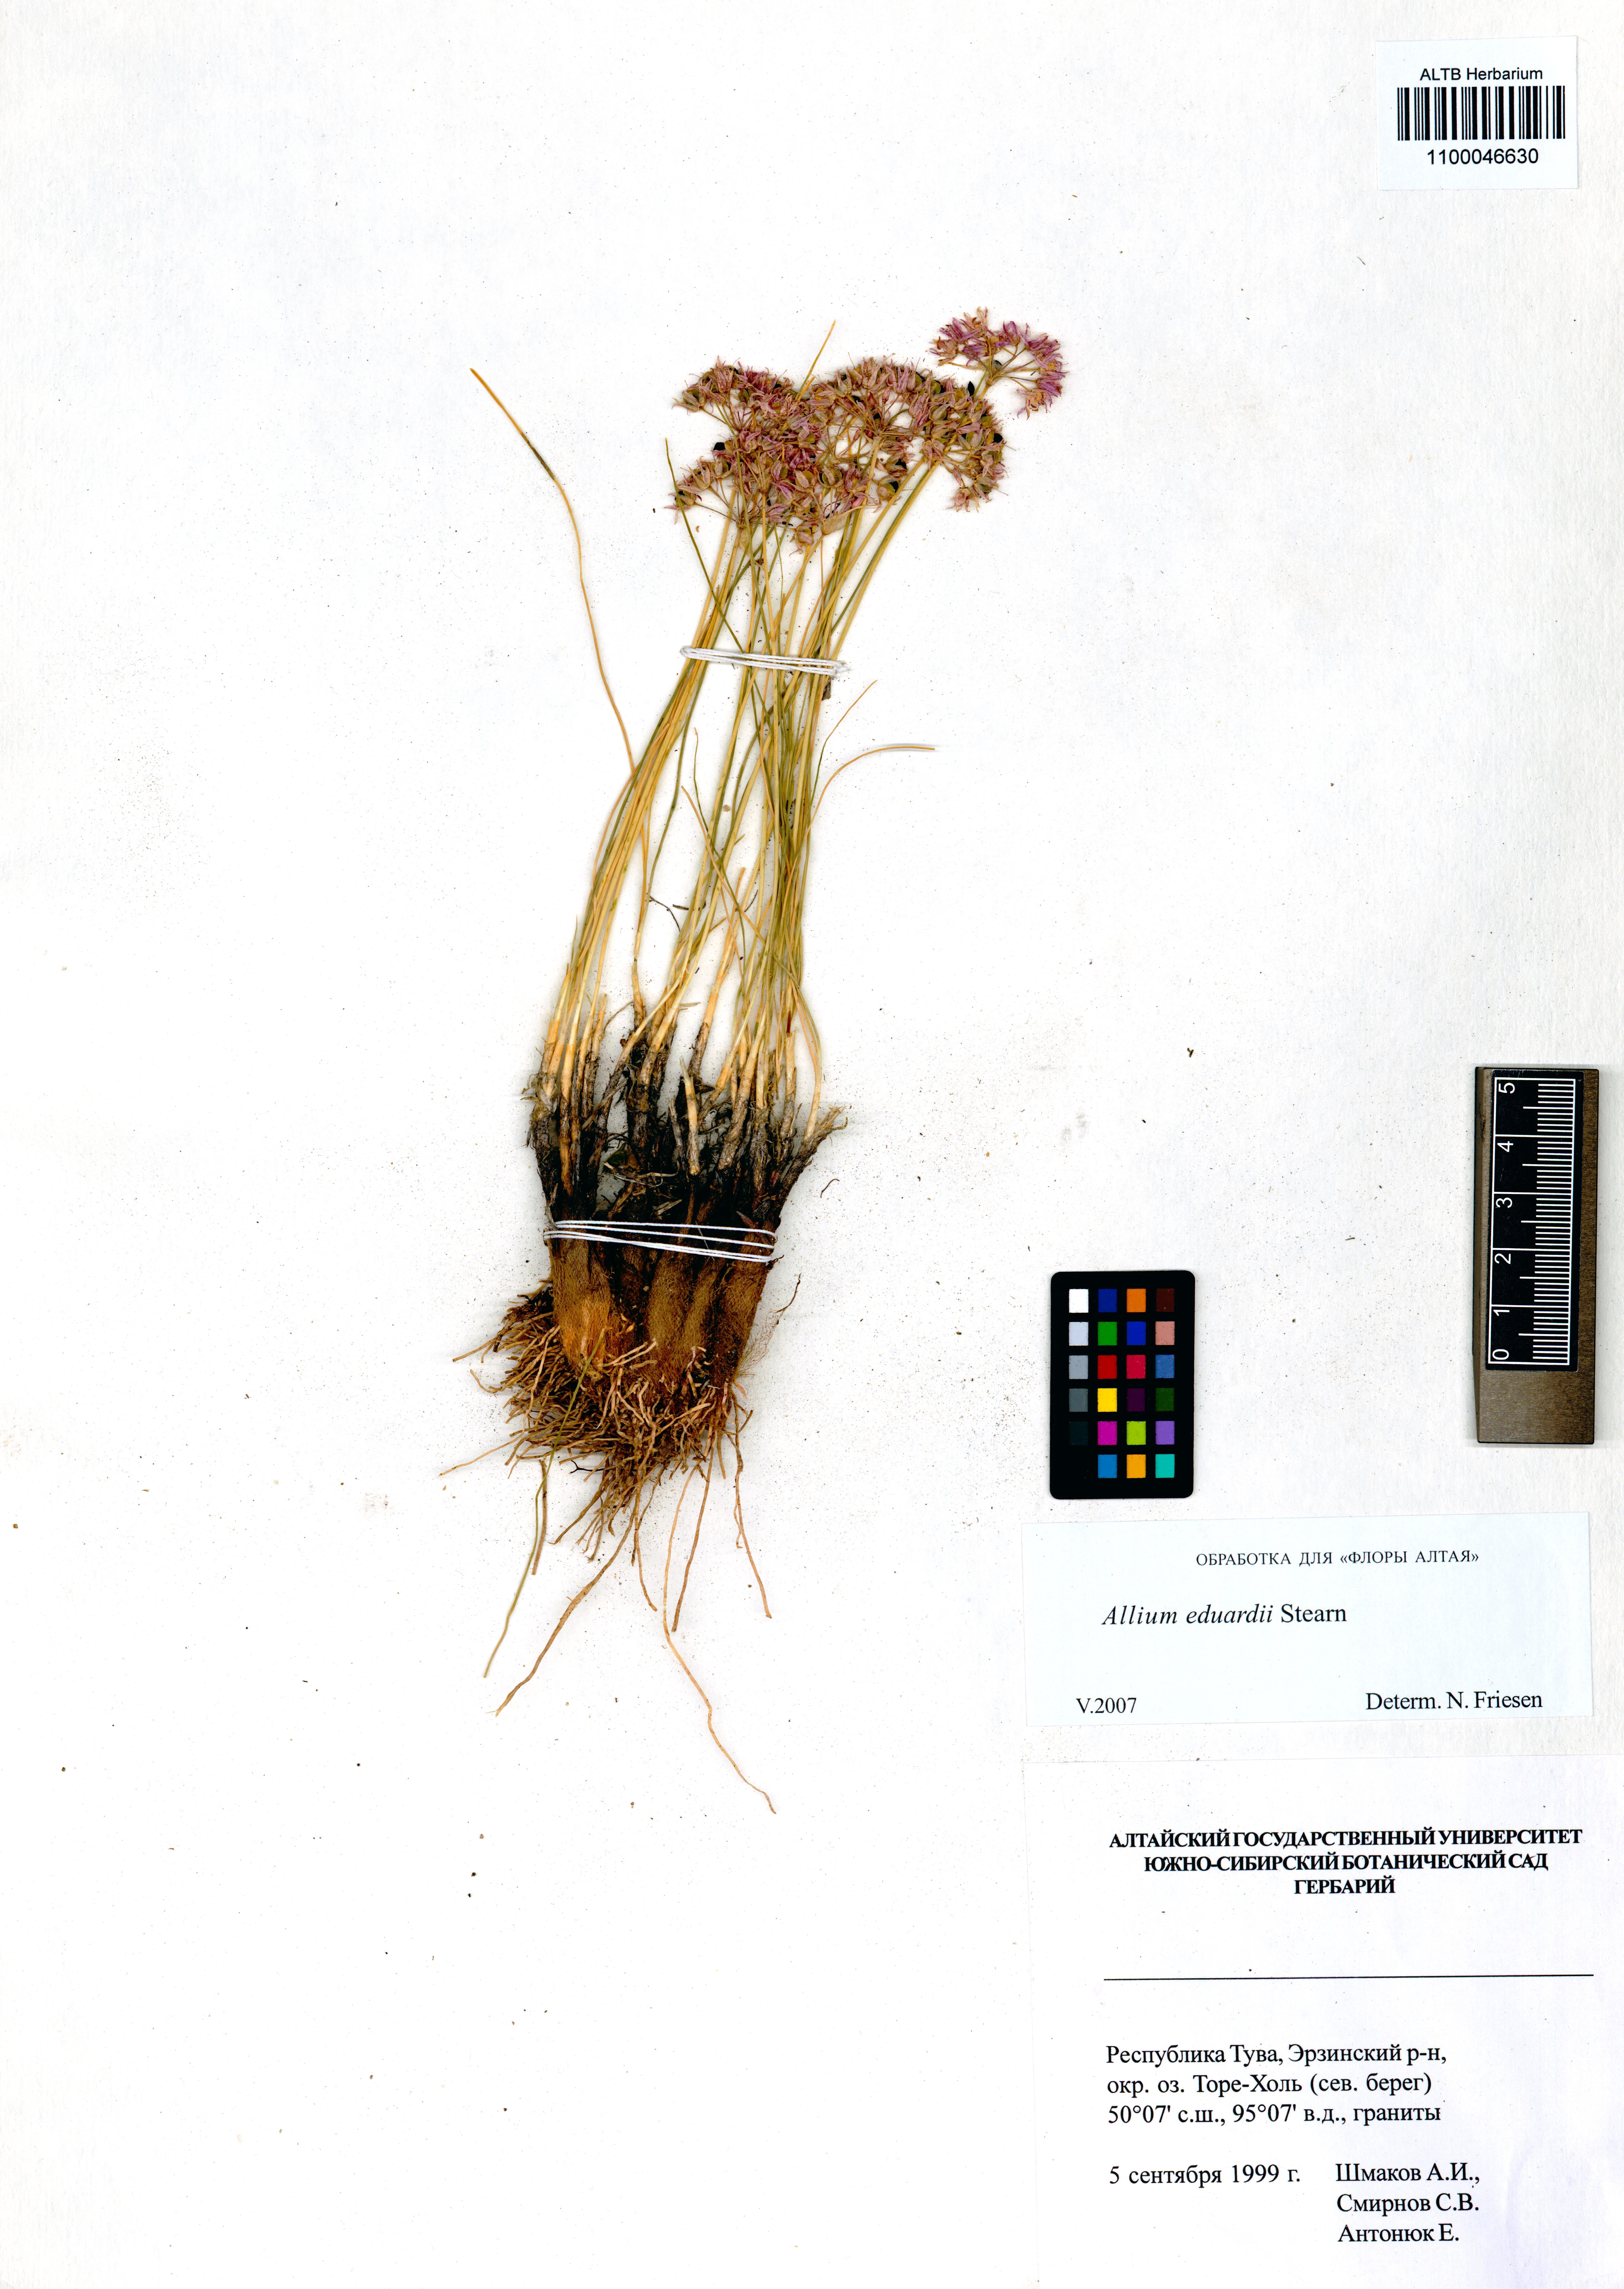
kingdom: Plantae
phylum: Tracheophyta
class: Liliopsida
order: Asparagales
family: Amaryllidaceae
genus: Allium
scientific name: Allium eduardi
